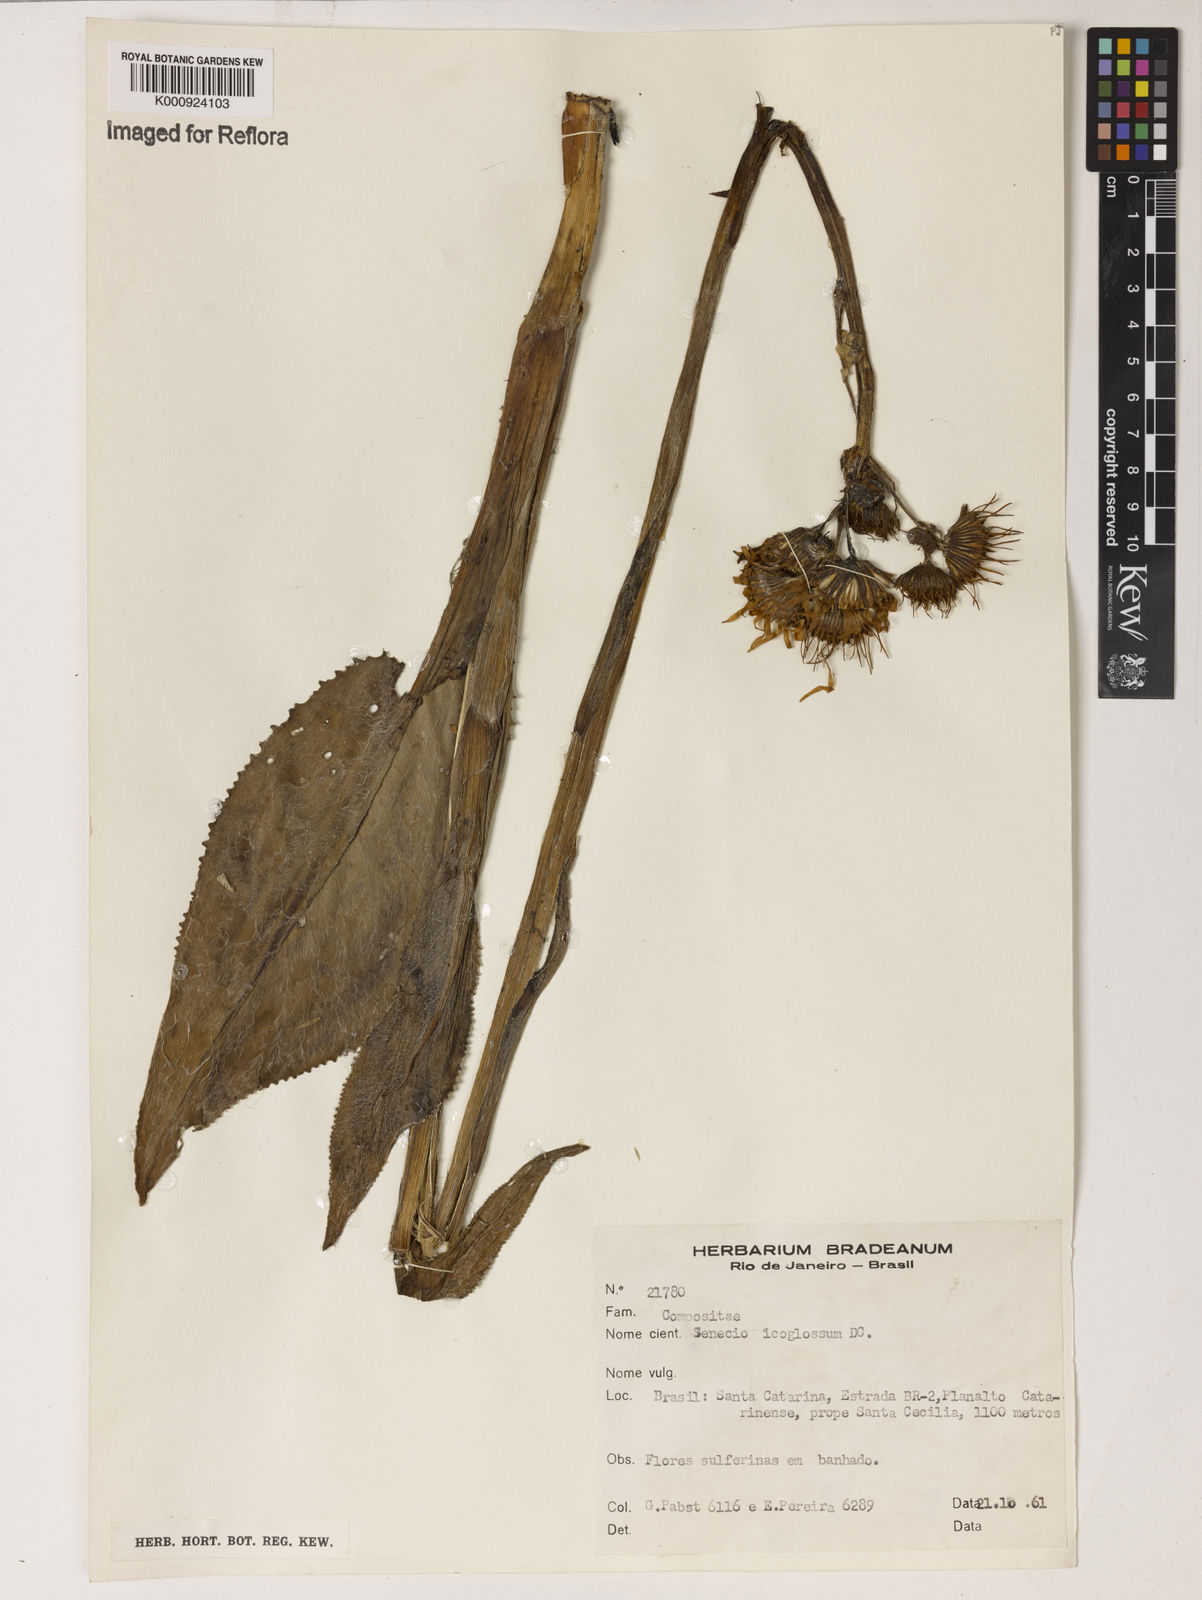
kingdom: Plantae
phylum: Tracheophyta
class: Magnoliopsida
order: Asterales
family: Asteraceae
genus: Senecio
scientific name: Senecio icoglossus
